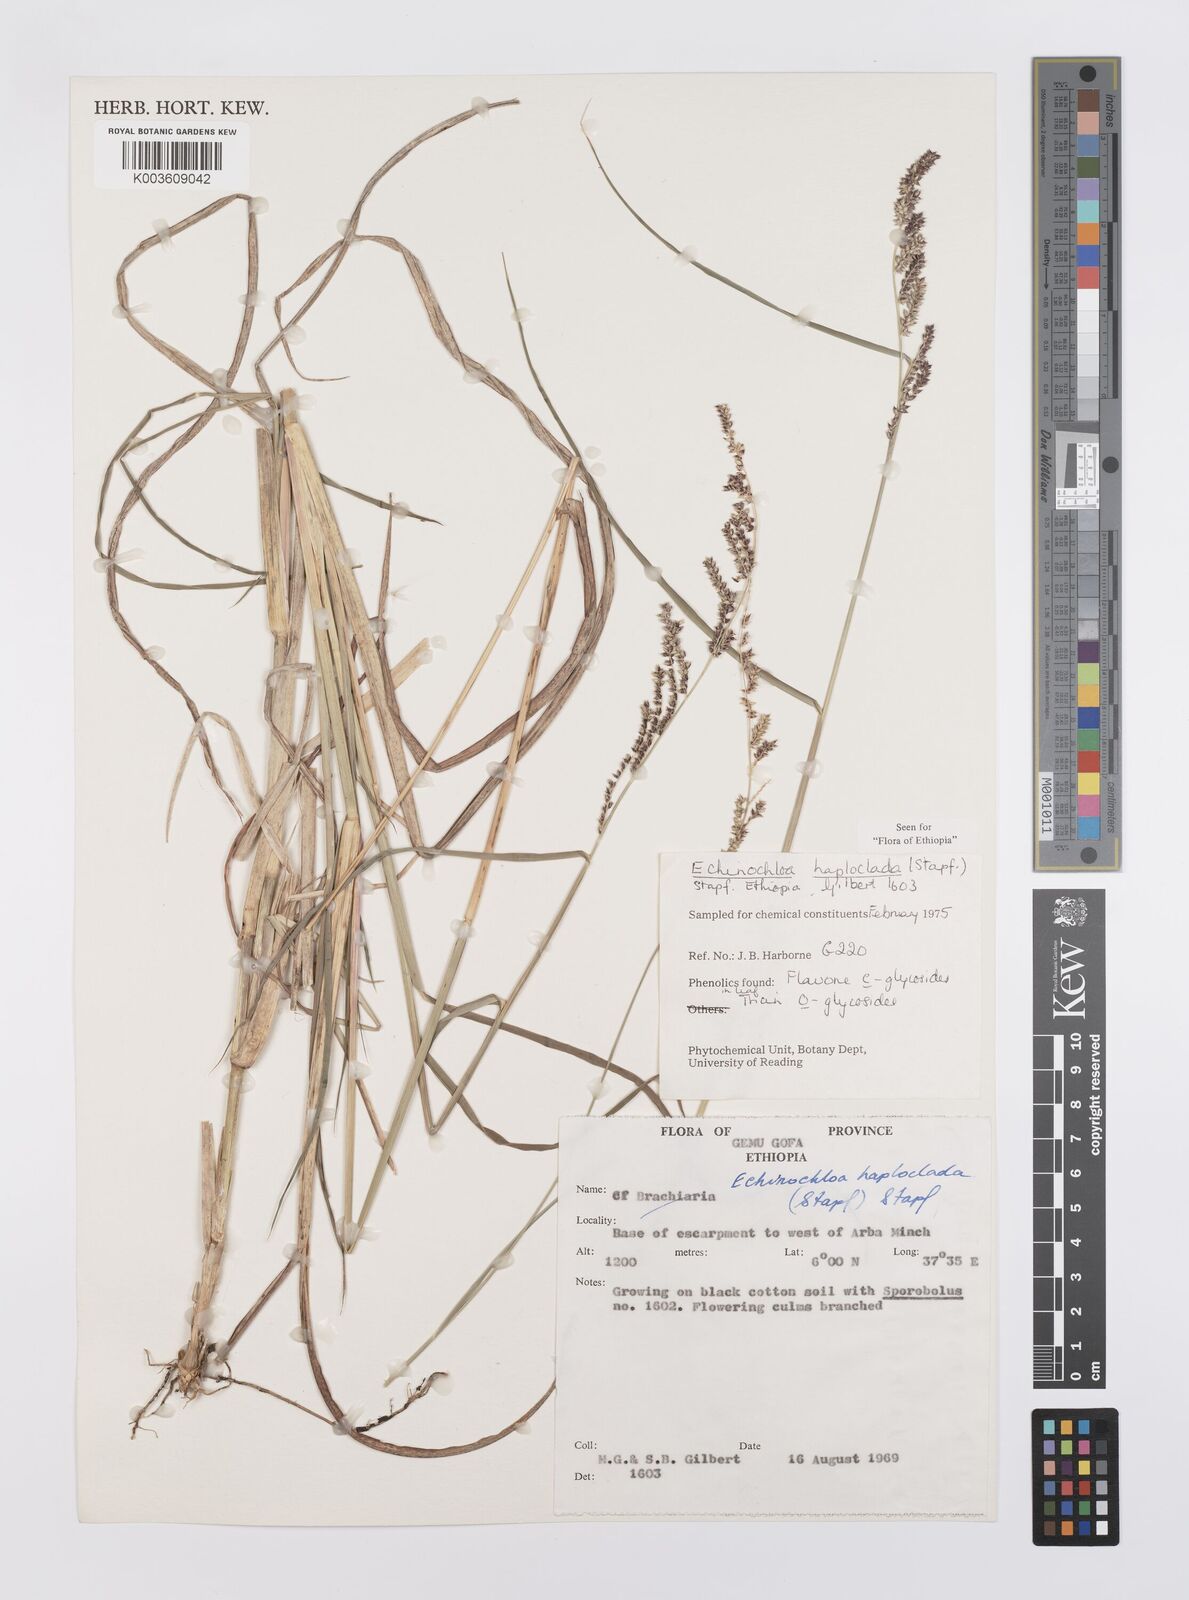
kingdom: Plantae
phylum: Tracheophyta
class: Liliopsida
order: Poales
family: Poaceae
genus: Echinochloa
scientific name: Echinochloa haploclada
